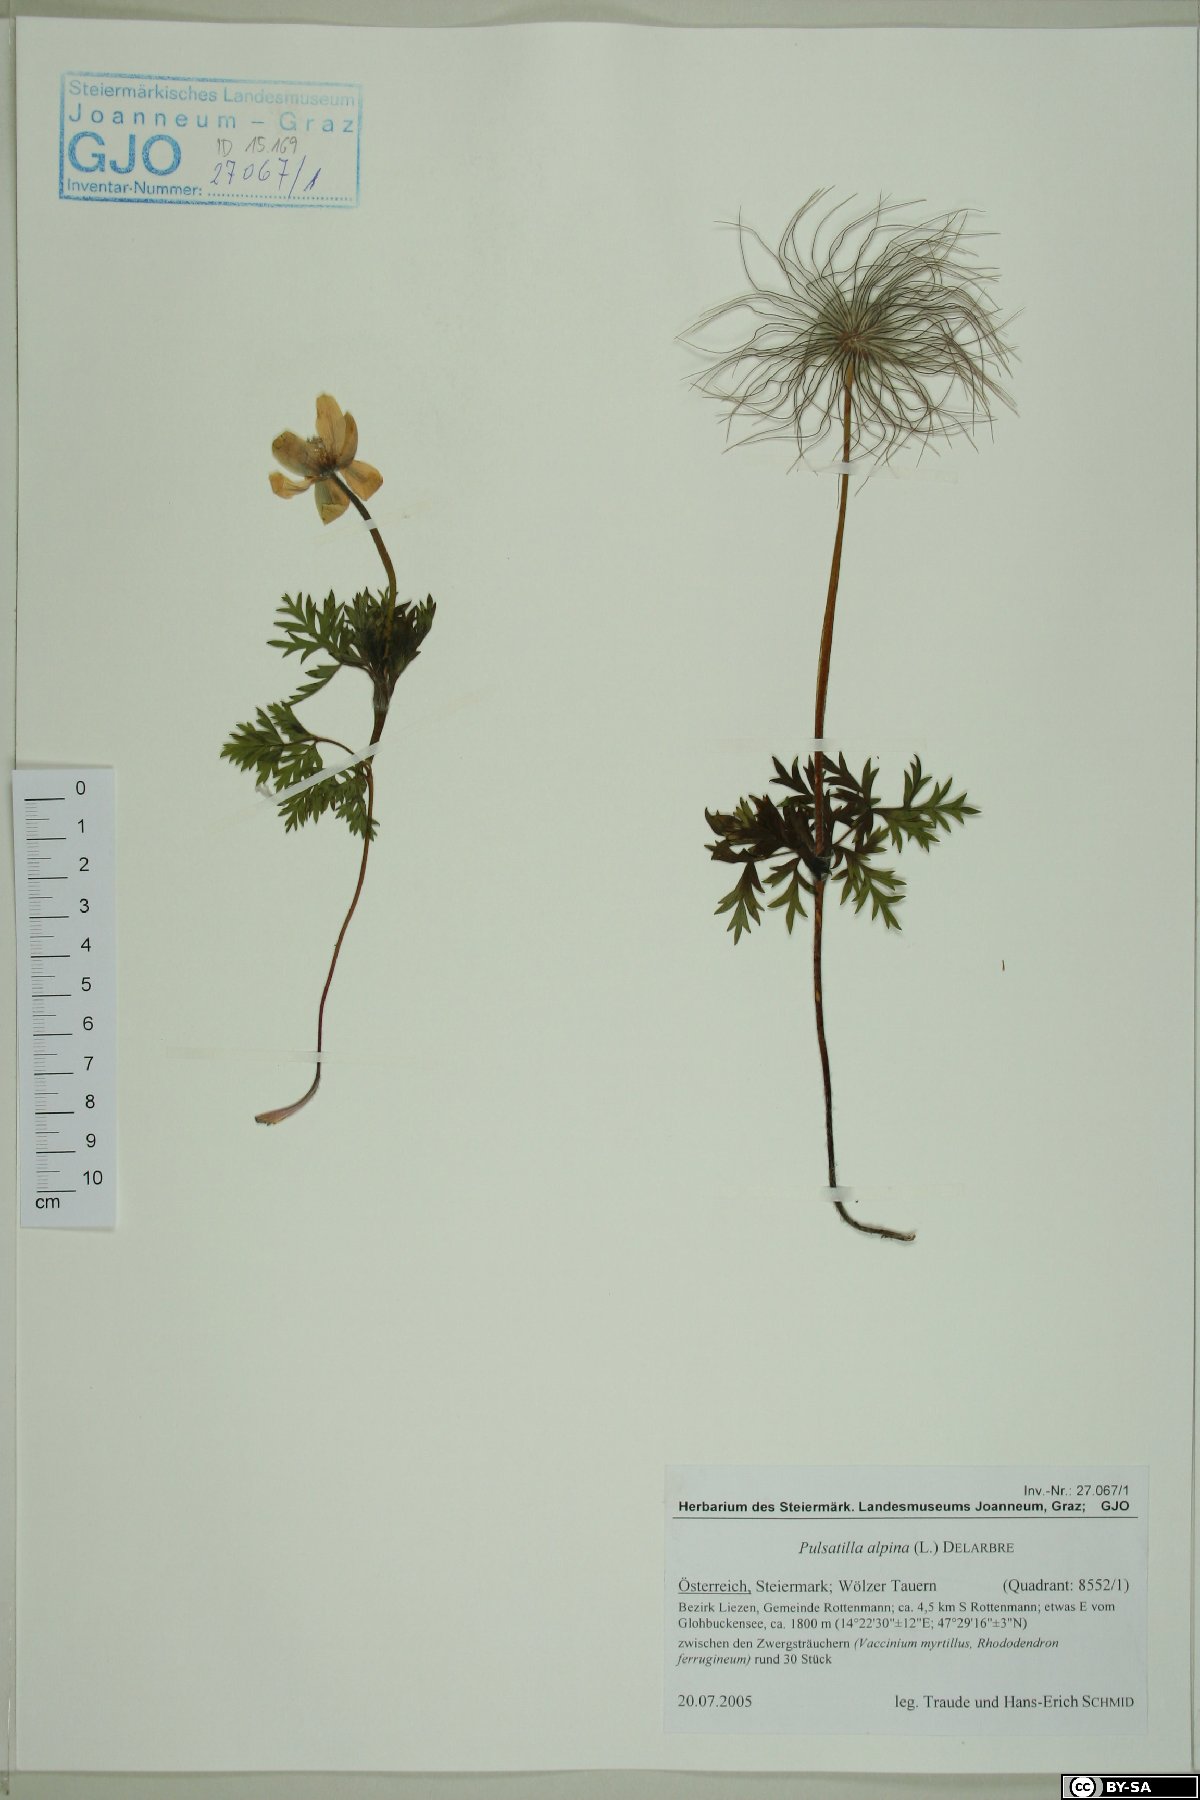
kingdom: Plantae
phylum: Tracheophyta
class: Magnoliopsida
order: Ranunculales
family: Ranunculaceae
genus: Pulsatilla
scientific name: Pulsatilla alpina
